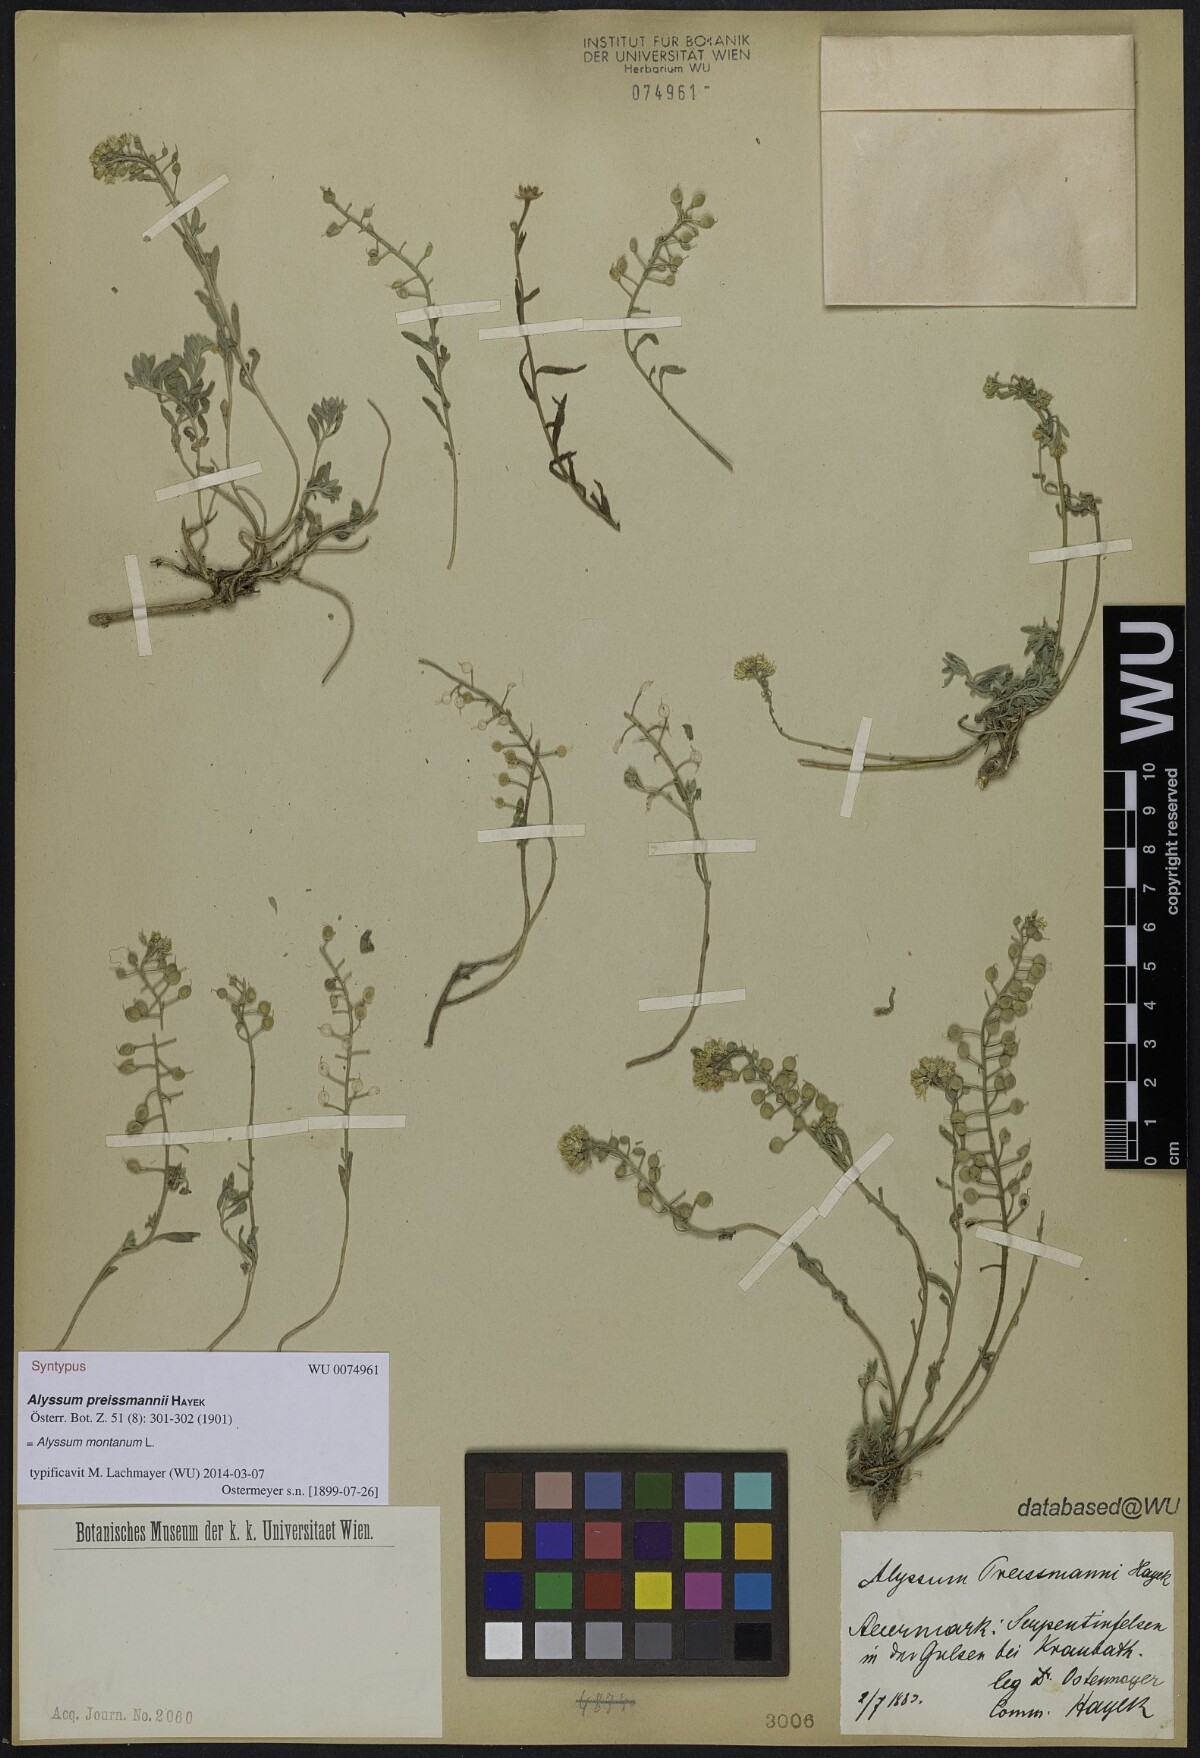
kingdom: Plantae
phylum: Tracheophyta
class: Magnoliopsida
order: Brassicales
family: Brassicaceae
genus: Alyssum
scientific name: Alyssum gmelinii
